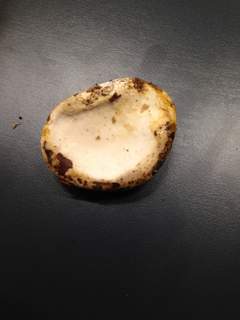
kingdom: Fungi
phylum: Basidiomycota
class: Agaricomycetes
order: Polyporales
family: Fomitopsidaceae
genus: Fomitopsis
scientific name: Fomitopsis betulina
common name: birkeporesvamp
